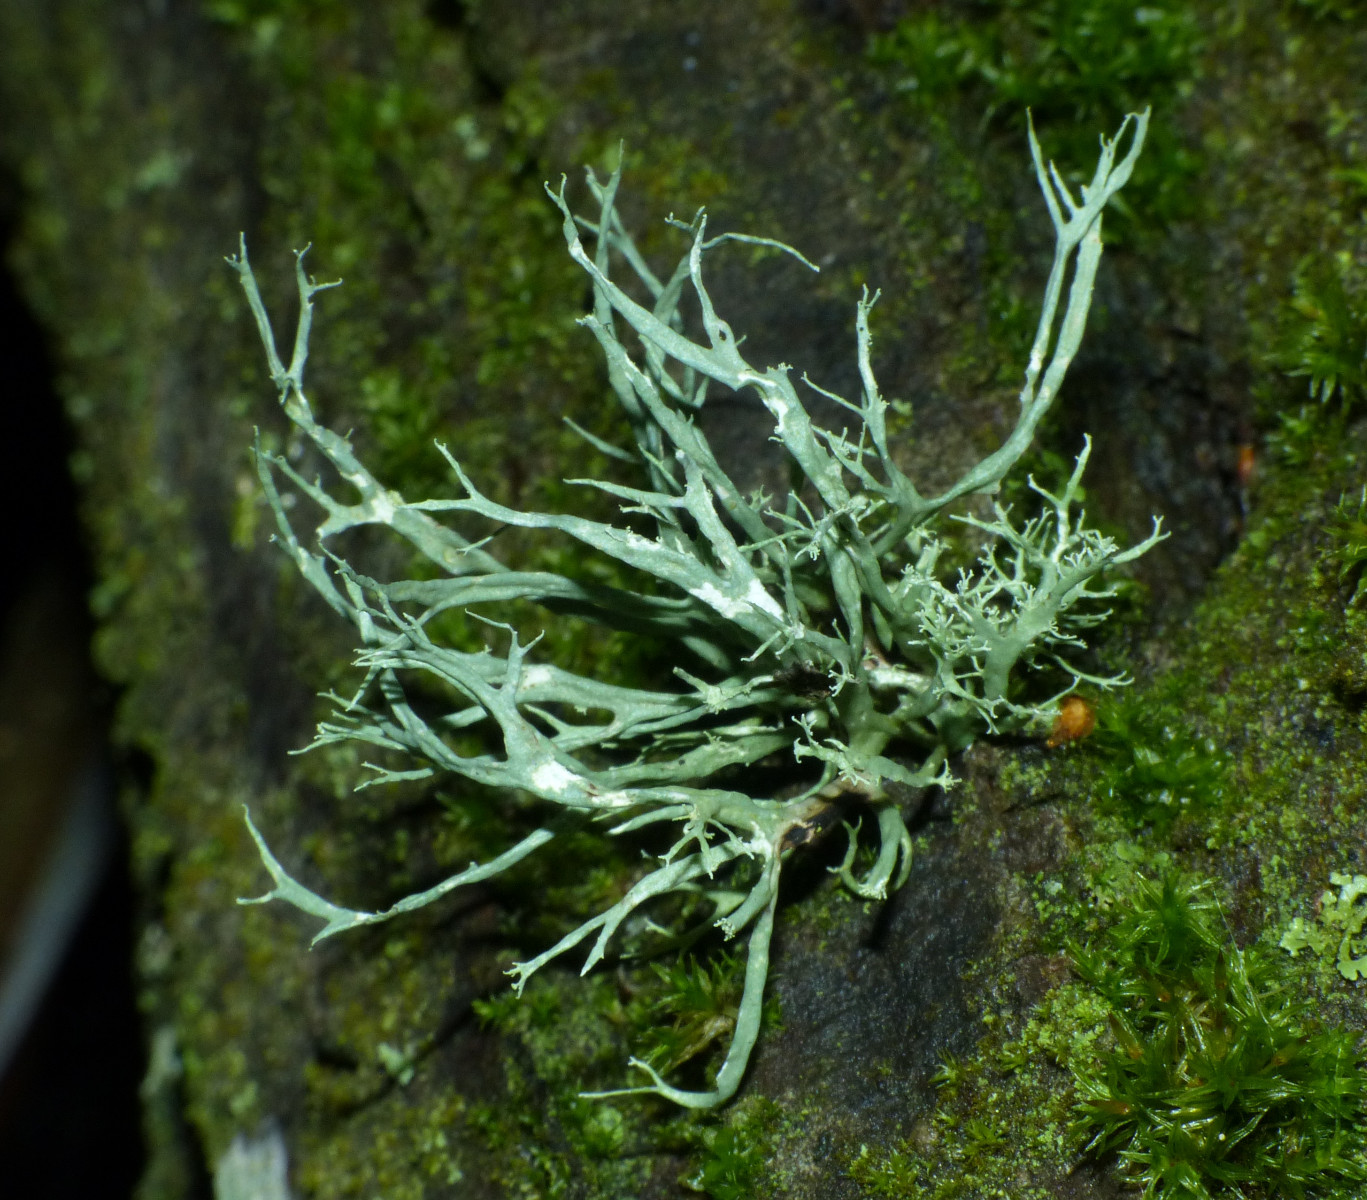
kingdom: Fungi
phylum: Ascomycota
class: Lecanoromycetes
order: Lecanorales
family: Parmeliaceae
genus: Evernia
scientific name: Evernia prunastri
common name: almindelig slåenlav
